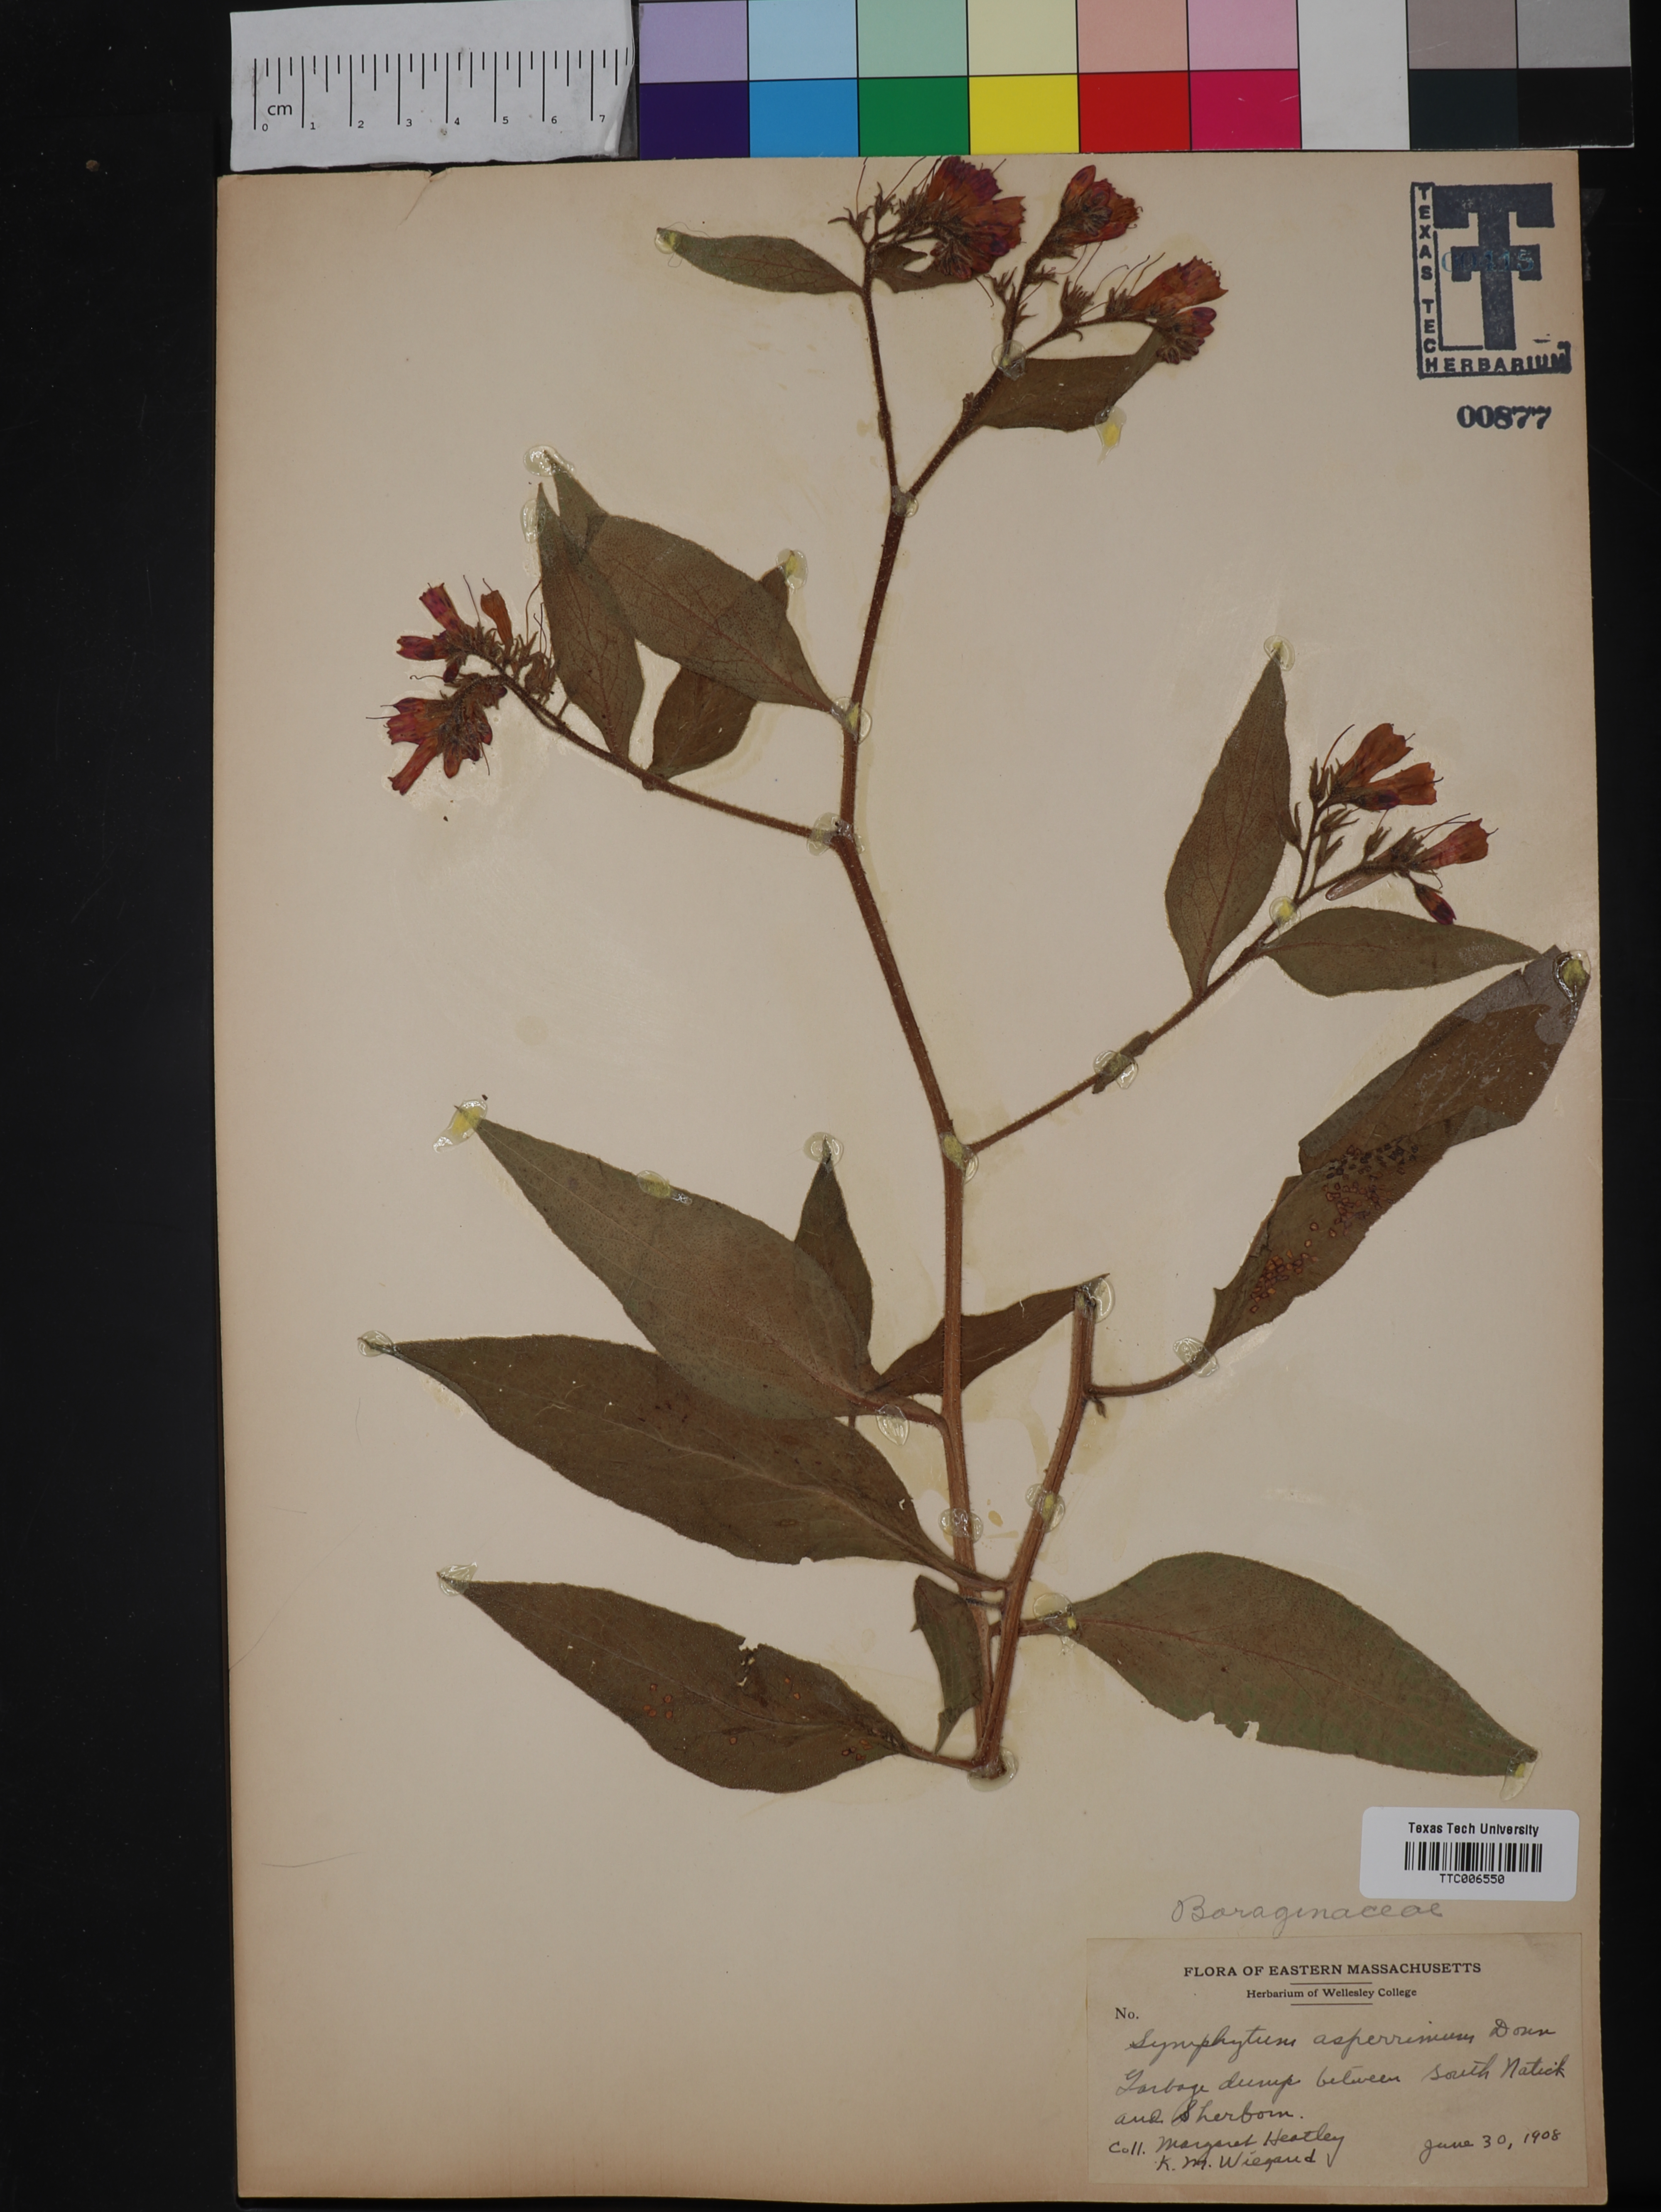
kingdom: Plantae
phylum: Tracheophyta
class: Magnoliopsida
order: Boraginales
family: Boraginaceae
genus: Symphytum
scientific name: Symphytum asperrimum
